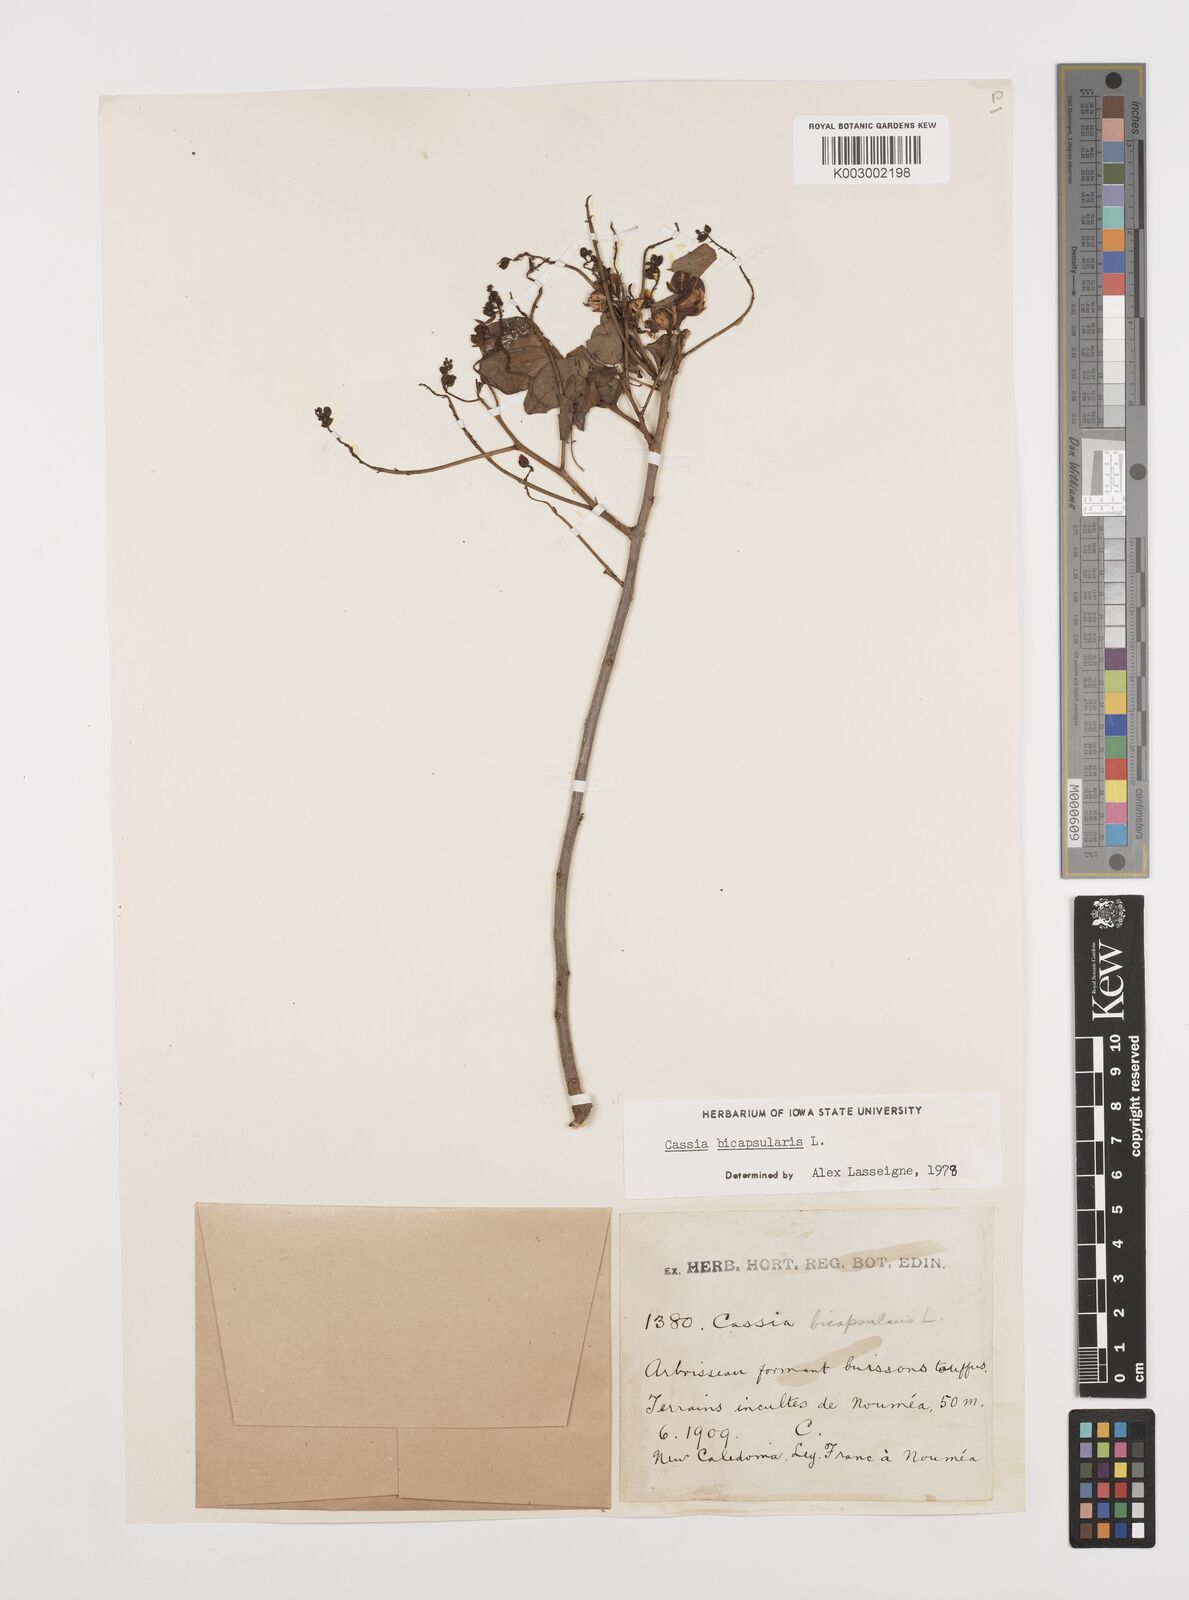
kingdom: Plantae
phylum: Tracheophyta
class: Magnoliopsida
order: Fabales
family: Fabaceae
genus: Senna
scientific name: Senna bicapsularis
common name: Christmasbush
